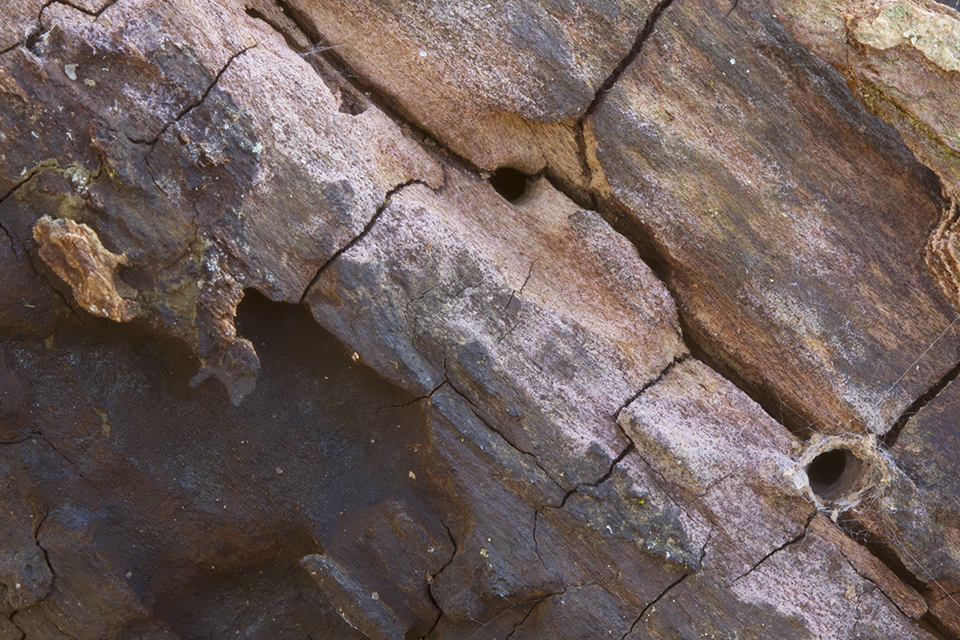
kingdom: Fungi
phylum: Basidiomycota
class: Agaricomycetes
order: Cantharellales
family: Tulasnellaceae
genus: Tulasnella
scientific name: Tulasnella violea
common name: violet ballonhinde
